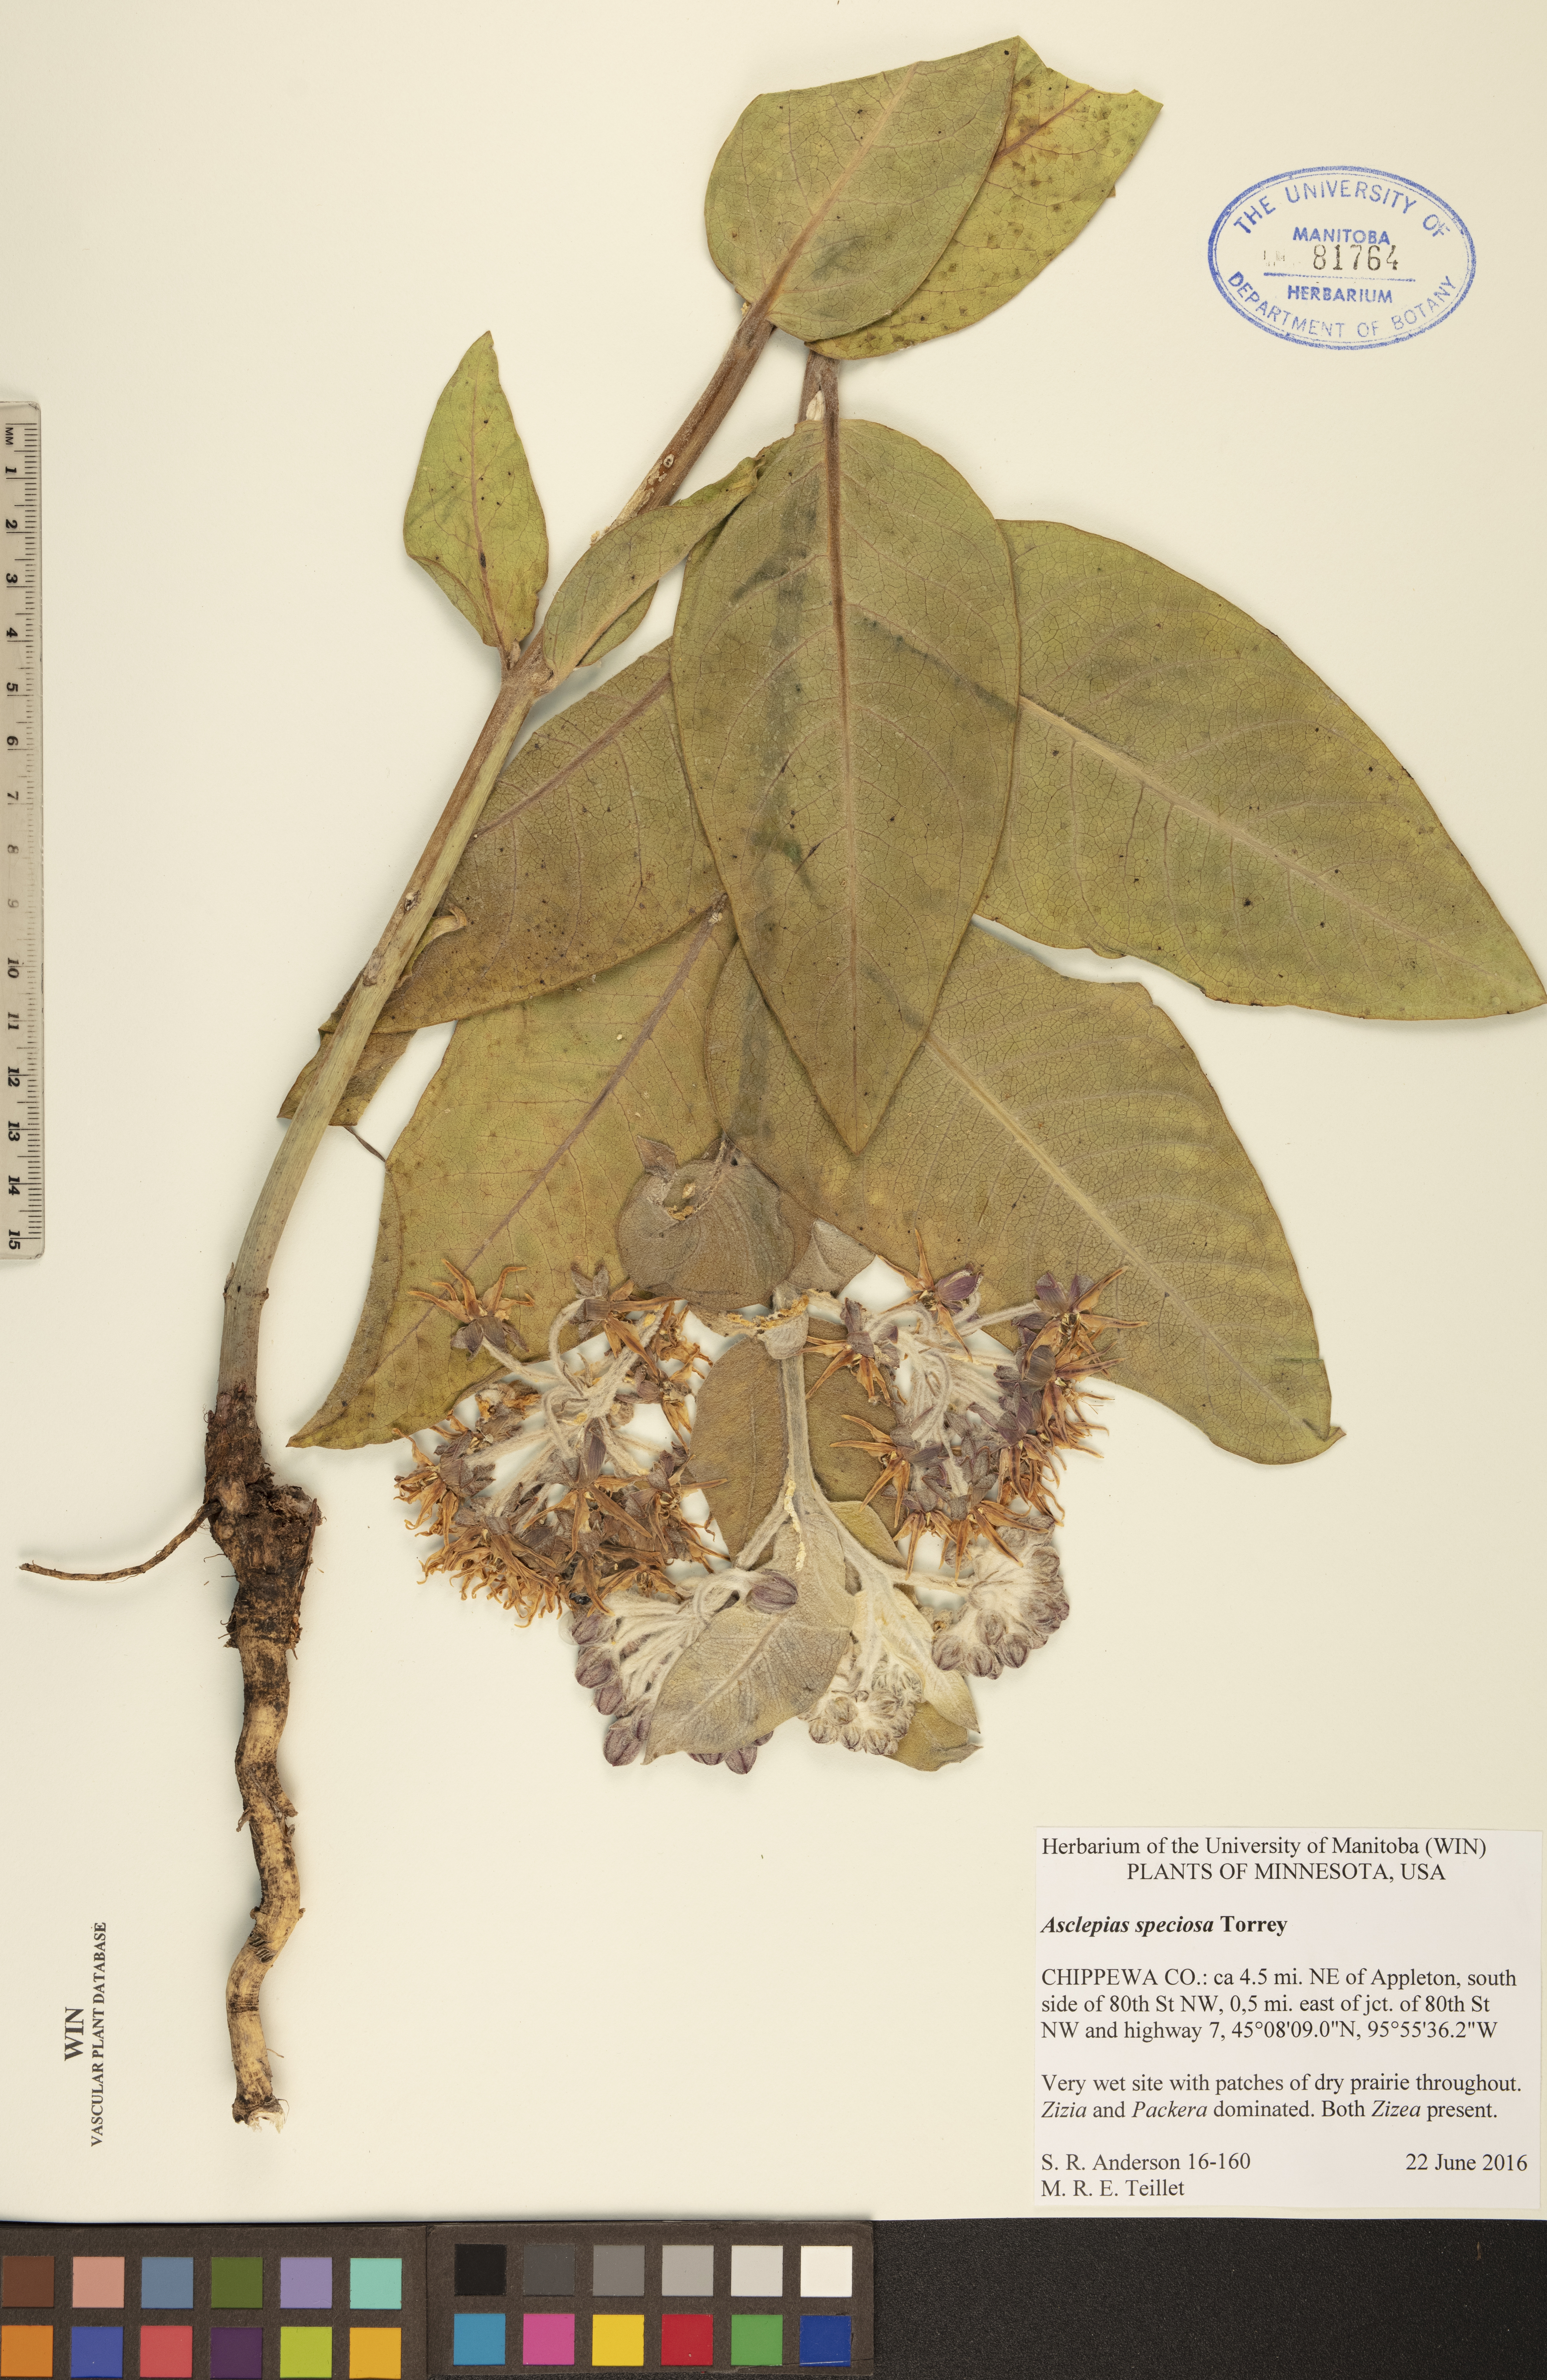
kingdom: Plantae
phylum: Tracheophyta
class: Magnoliopsida
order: Gentianales
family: Apocynaceae
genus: Asclepias
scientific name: Asclepias speciosa
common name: Showy milkweed
